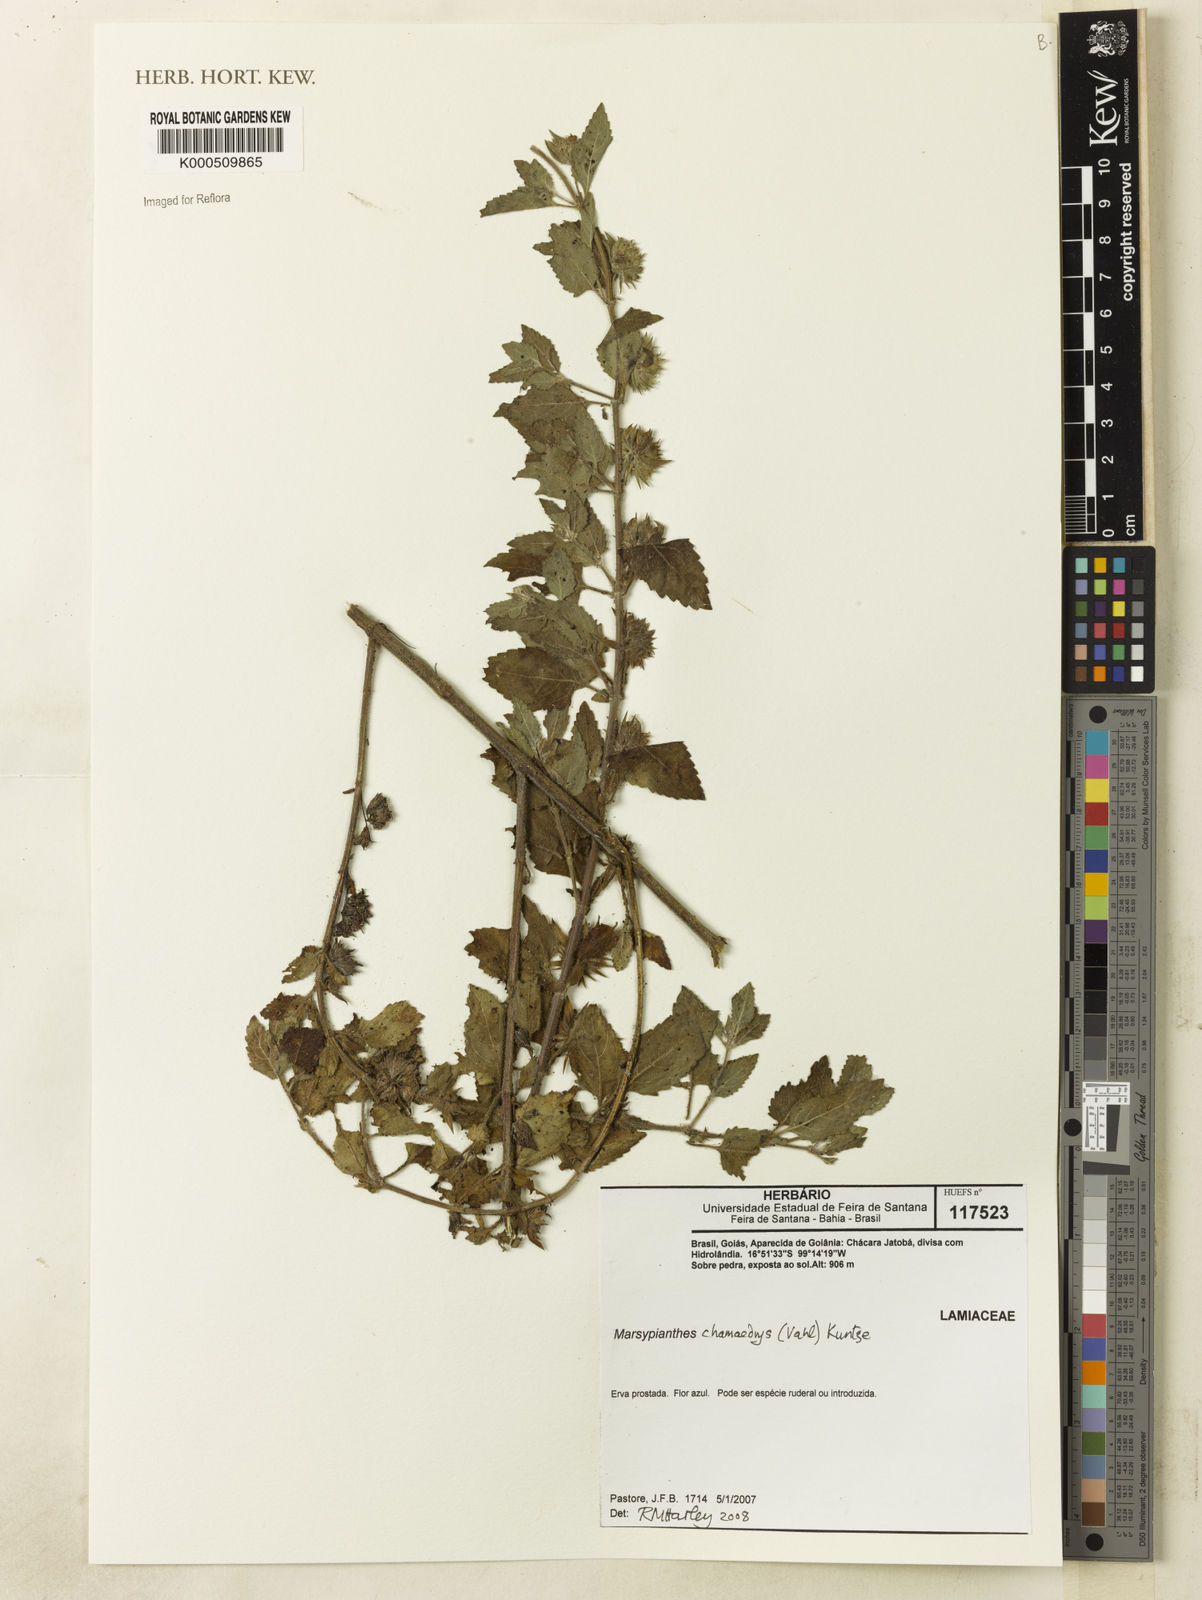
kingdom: Plantae
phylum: Tracheophyta
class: Magnoliopsida
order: Lamiales
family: Lamiaceae
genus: Marsypianthes
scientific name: Marsypianthes chamaedrys
